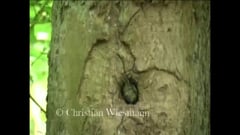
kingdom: Animalia
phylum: Chordata
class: Aves
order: Passeriformes
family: Paridae
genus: Cyanistes
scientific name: Cyanistes caeruleus
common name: Eurasian blue tit
